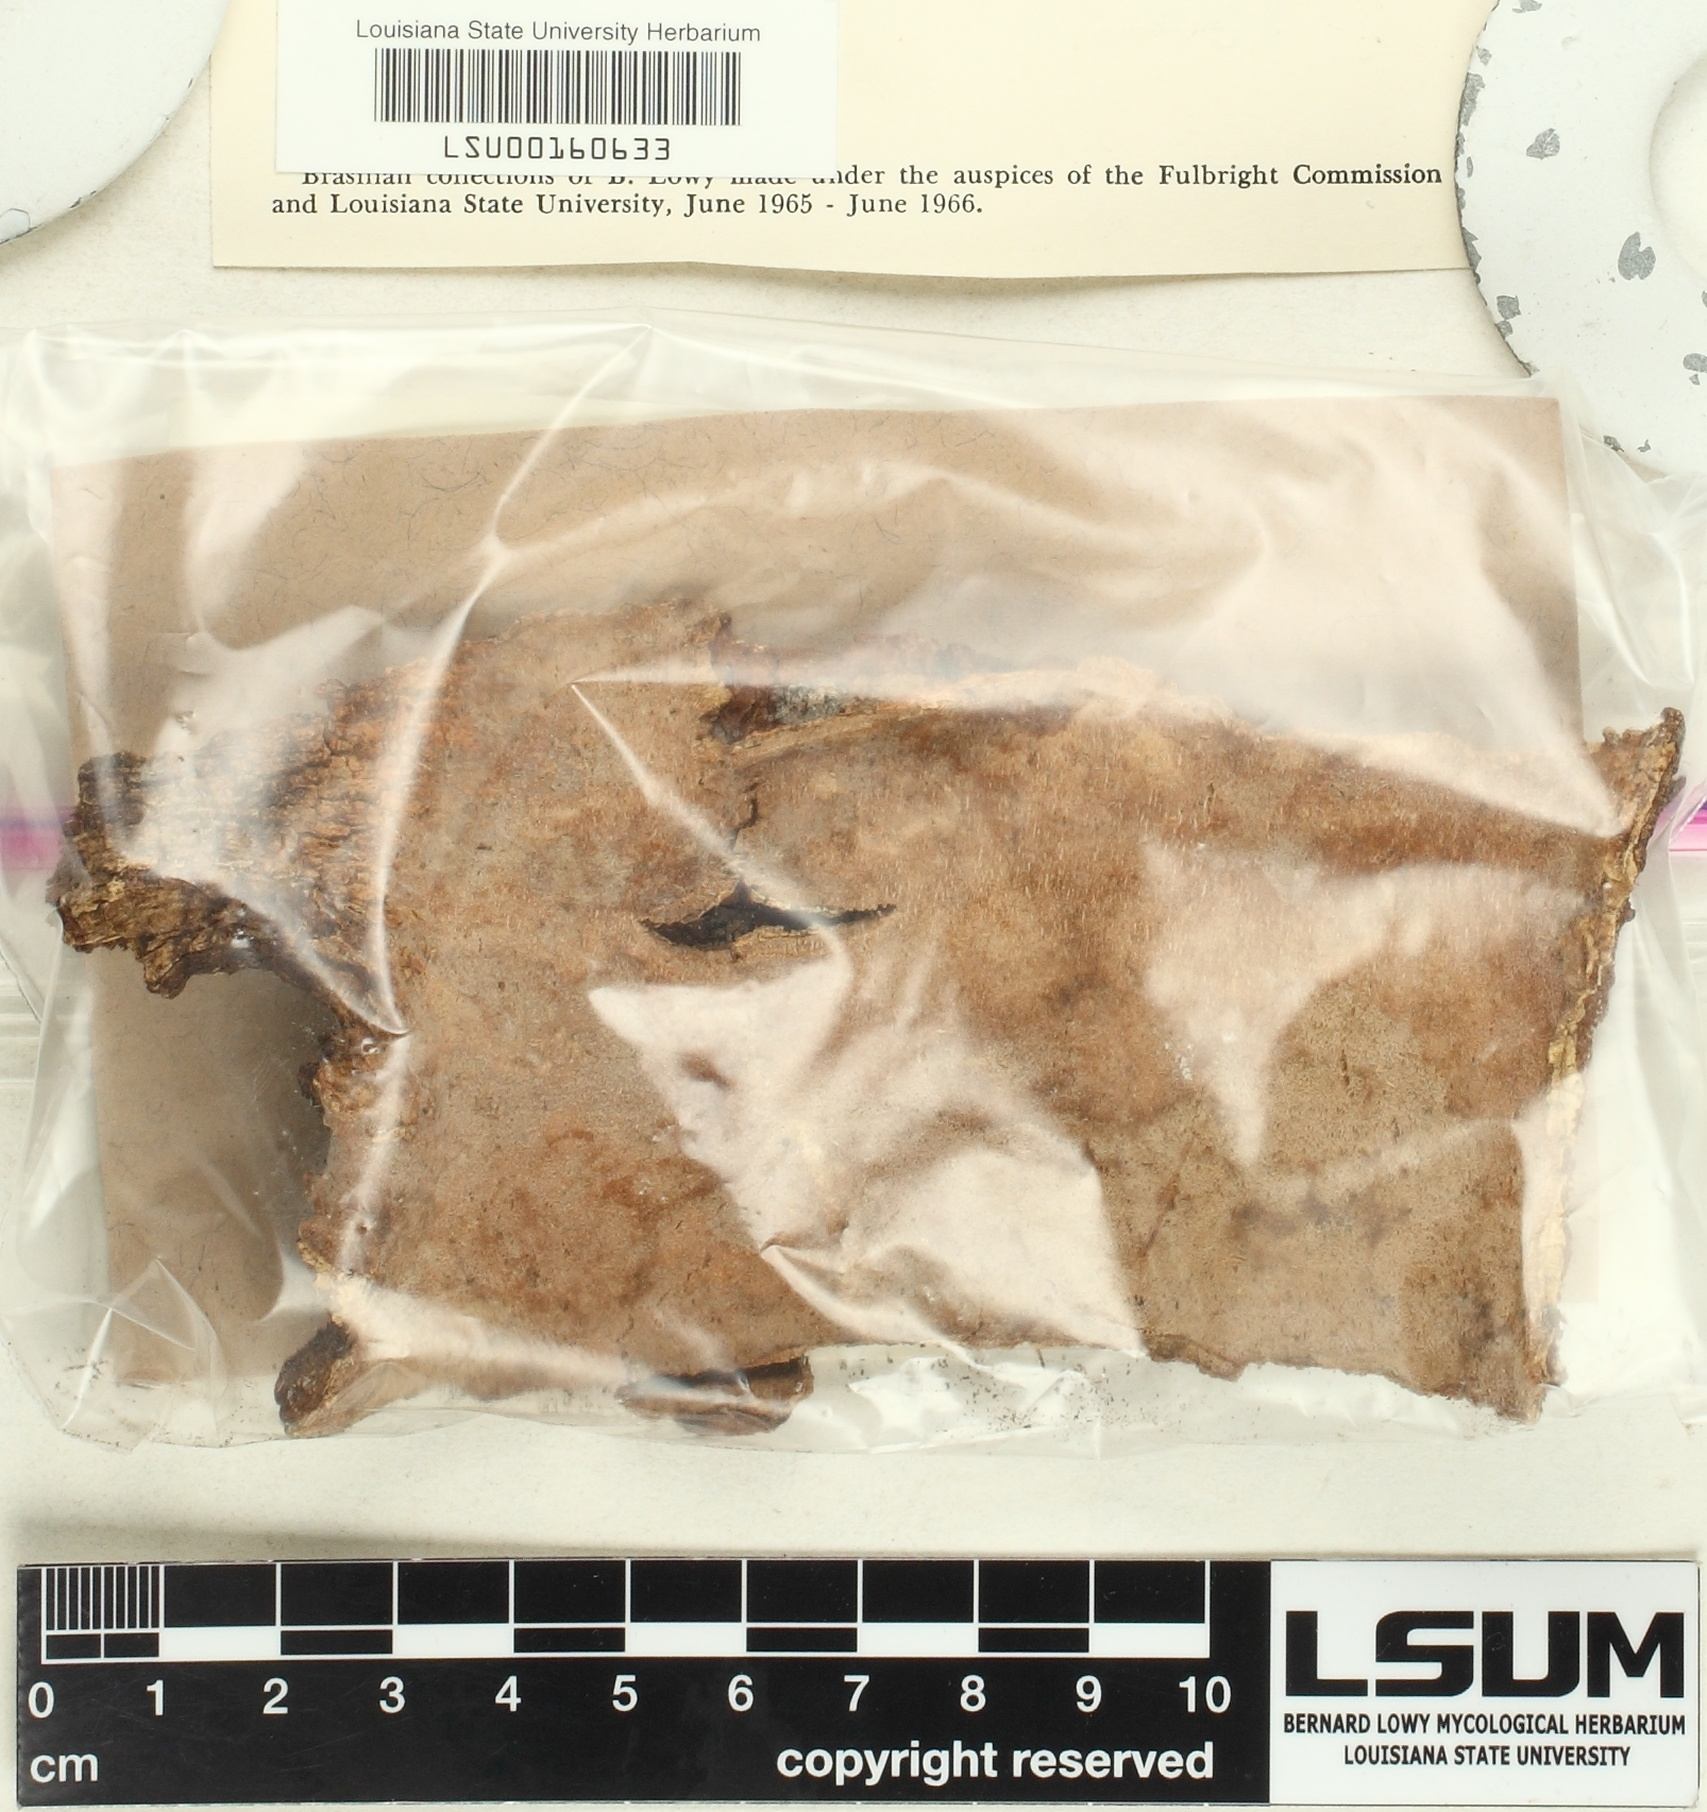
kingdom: Fungi
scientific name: Fungi
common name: Fungi
